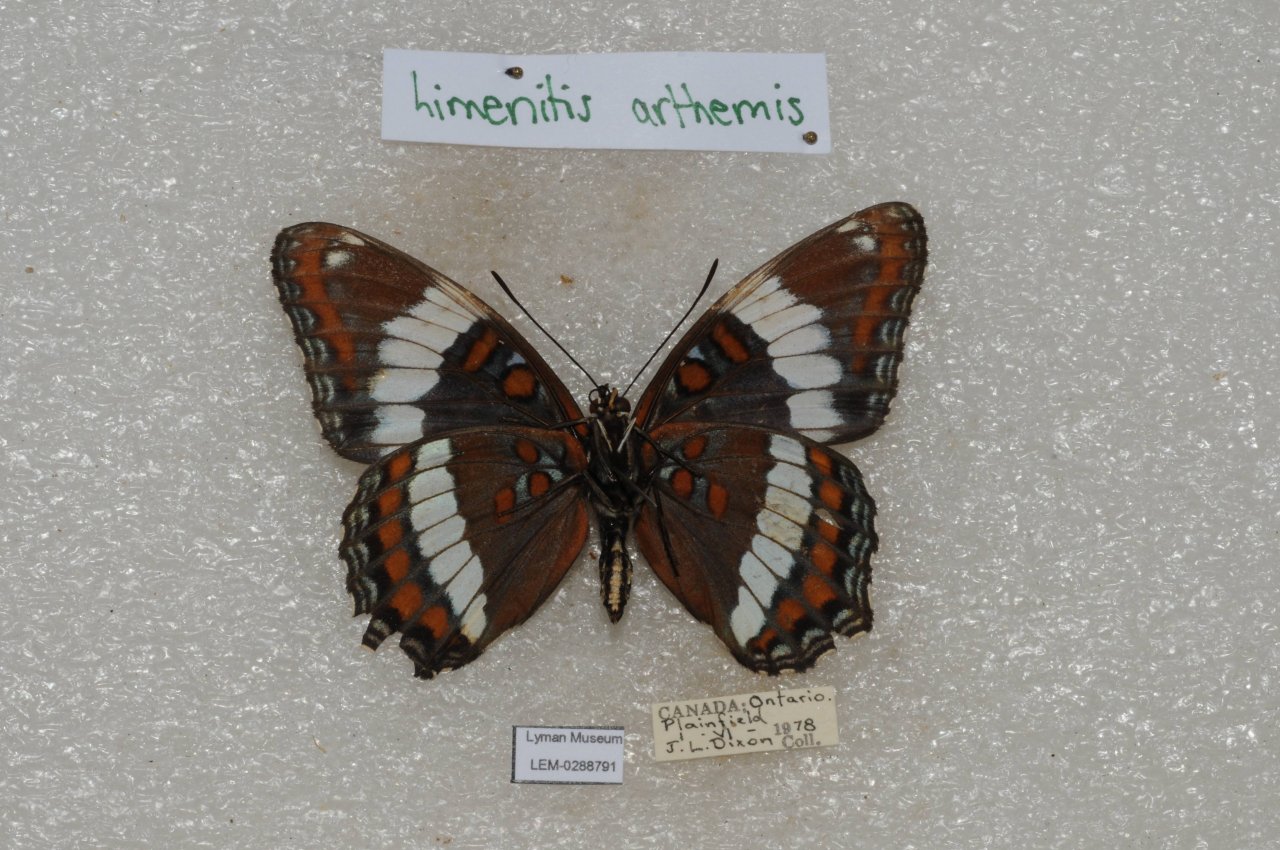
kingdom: Animalia
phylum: Arthropoda
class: Insecta
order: Lepidoptera
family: Nymphalidae
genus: Limenitis
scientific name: Limenitis arthemis
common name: Red-spotted Admiral
